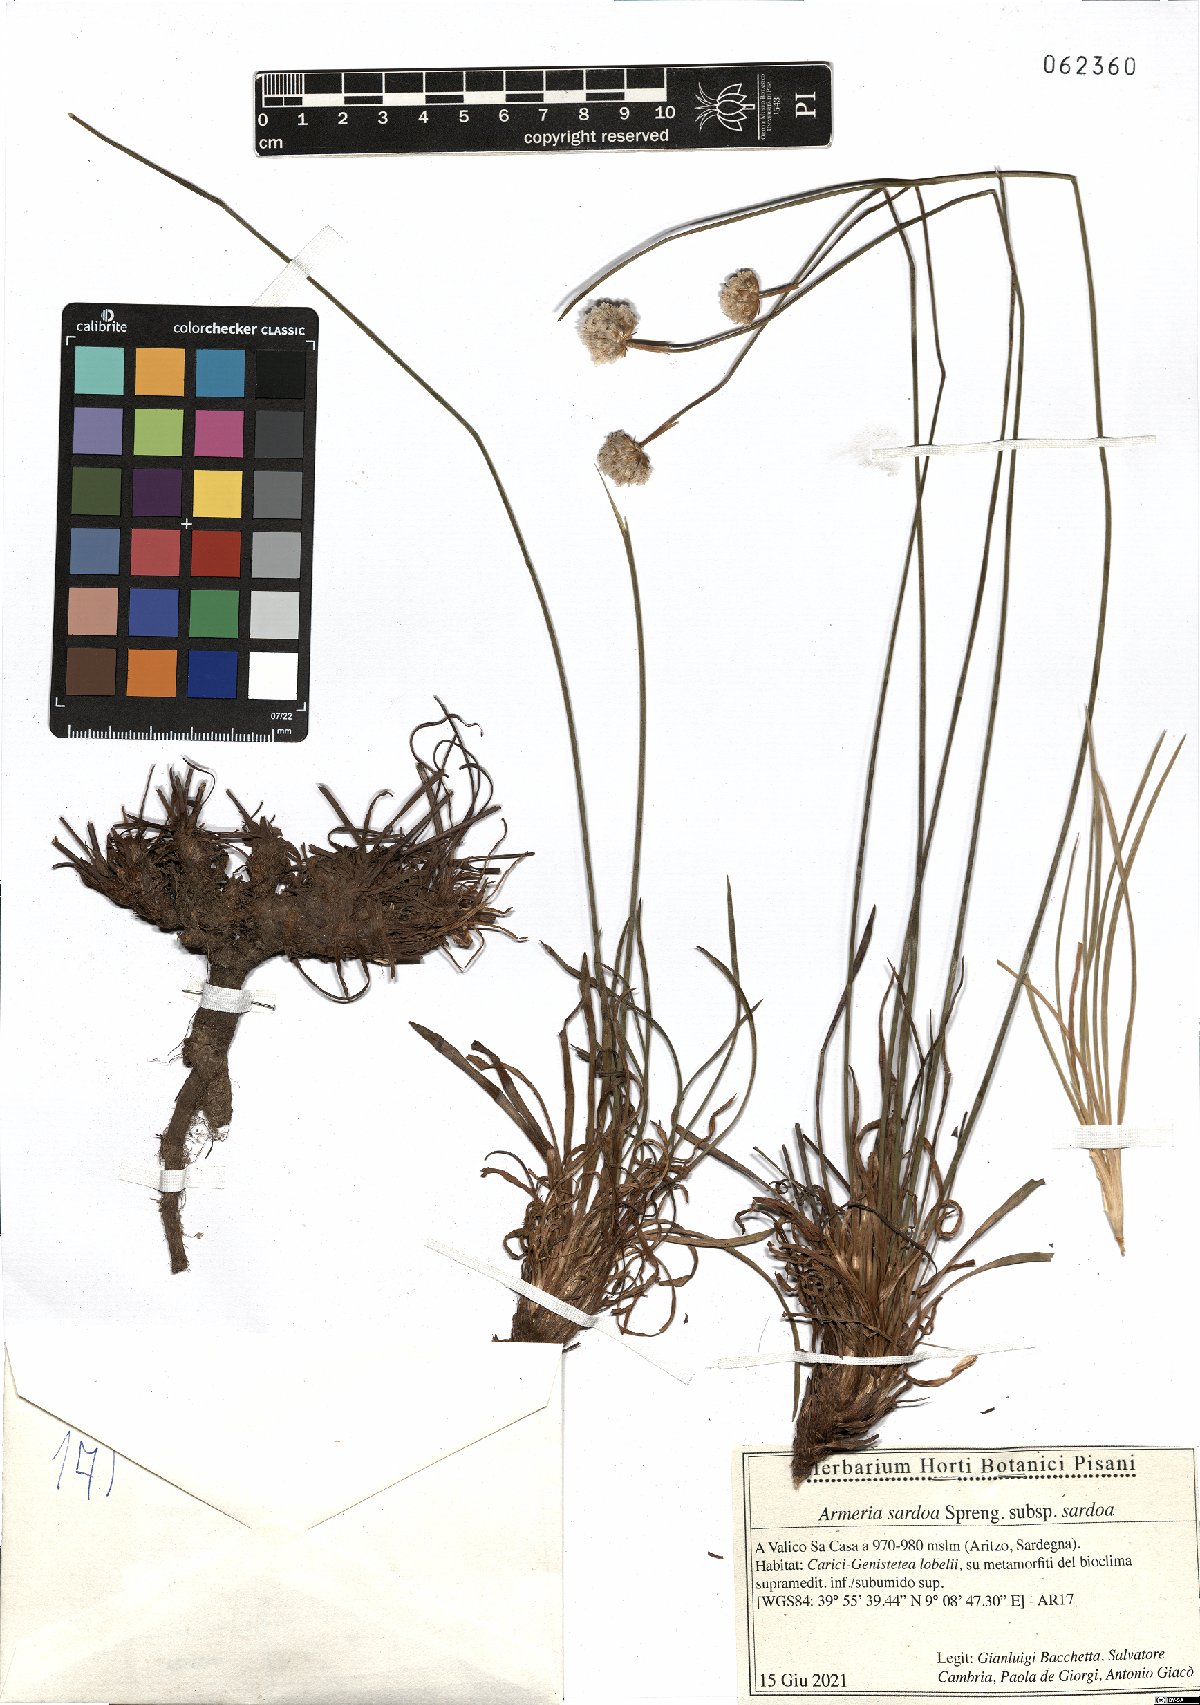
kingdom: Plantae
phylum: Tracheophyta
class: Magnoliopsida
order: Caryophyllales
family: Plumbaginaceae
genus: Armeria
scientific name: Armeria sardoa
